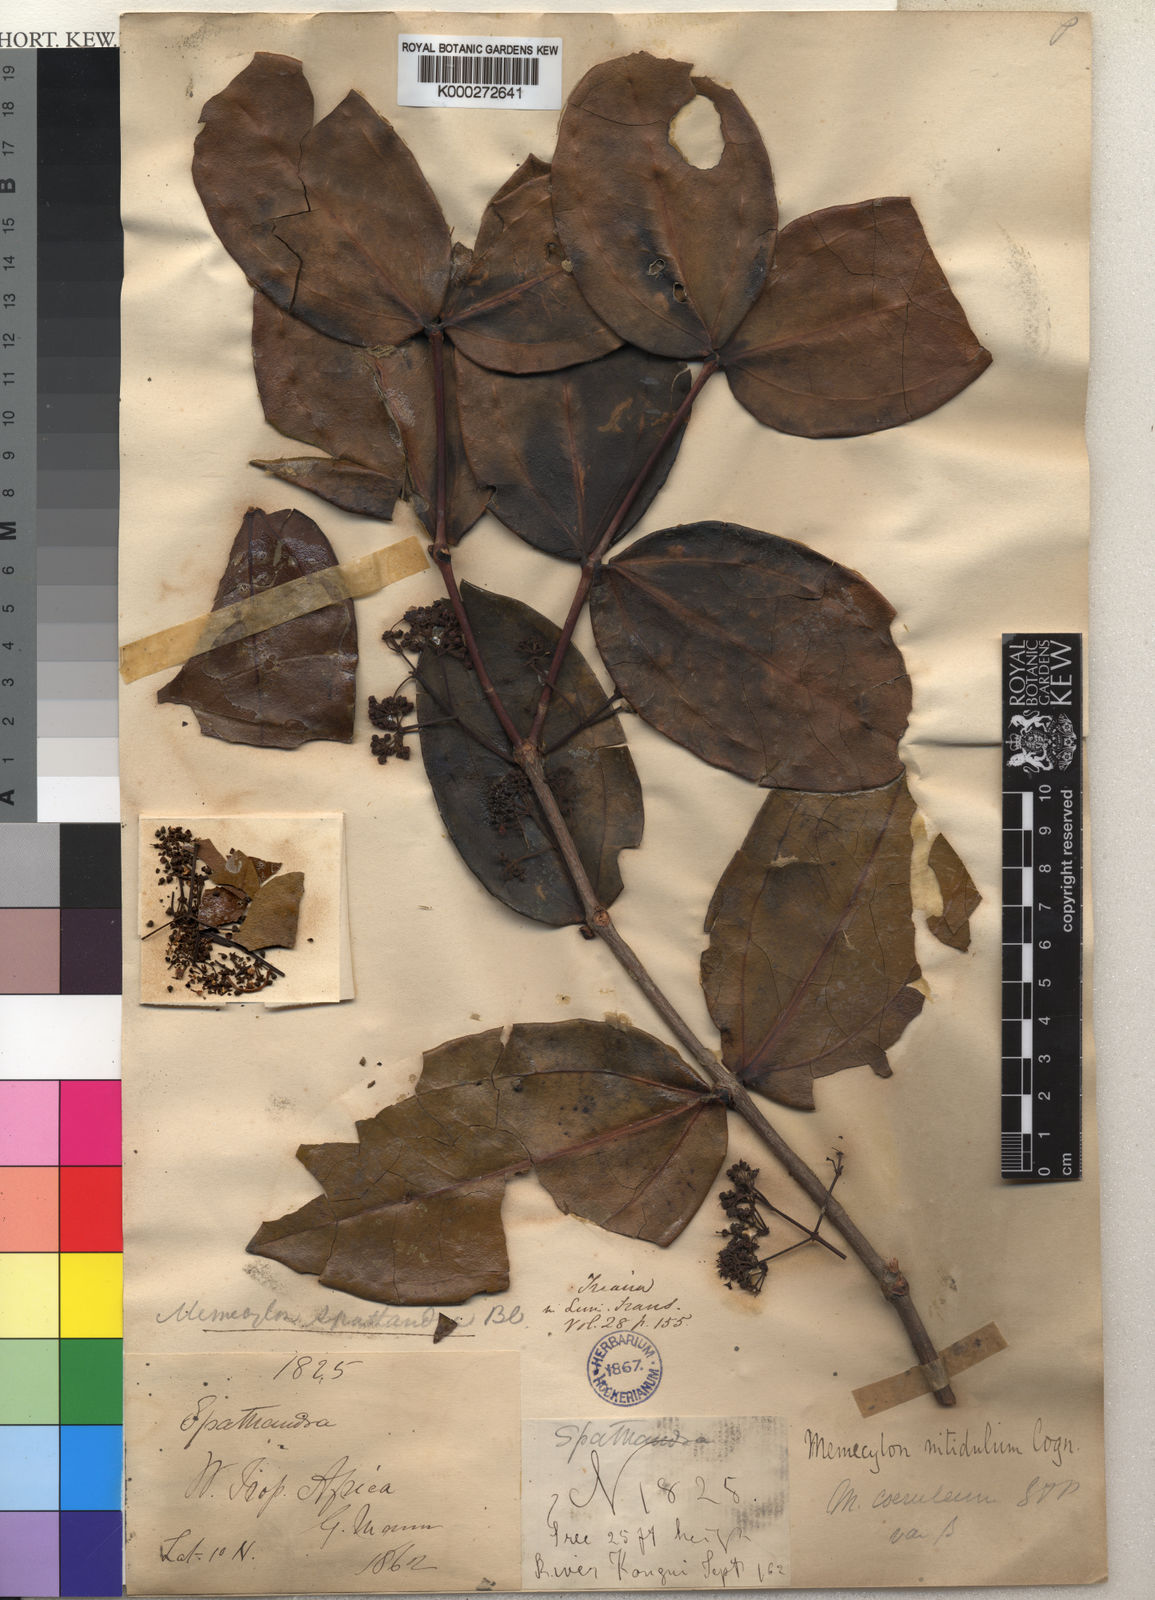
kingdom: Plantae
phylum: Tracheophyta
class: Magnoliopsida
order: Myrtales
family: Melastomataceae
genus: Spathandra
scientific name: Spathandra
